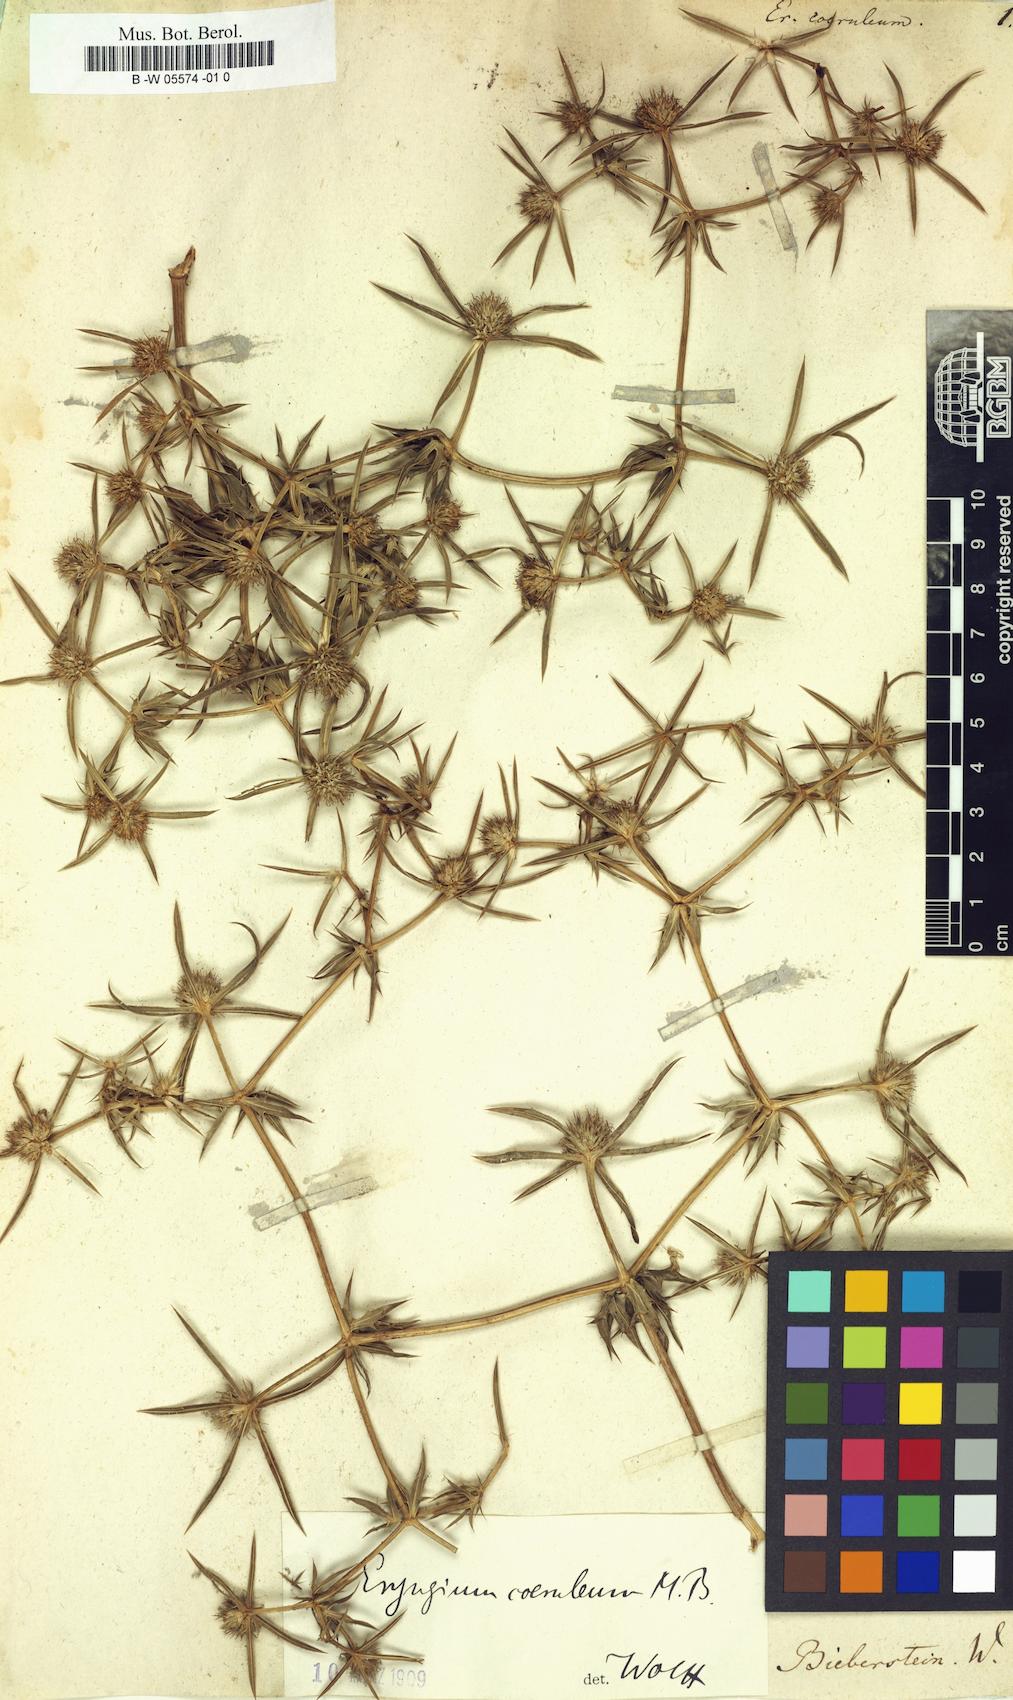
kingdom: Plantae
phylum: Tracheophyta
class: Magnoliopsida
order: Apiales
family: Apiaceae
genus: Eryngium
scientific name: Eryngium caeruleum
